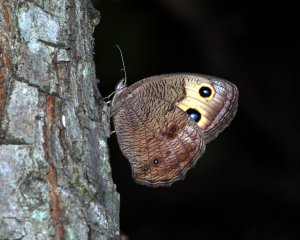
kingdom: Animalia
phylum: Arthropoda
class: Insecta
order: Lepidoptera
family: Nymphalidae
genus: Cercyonis
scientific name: Cercyonis pegala
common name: Common Wood-Nymph
